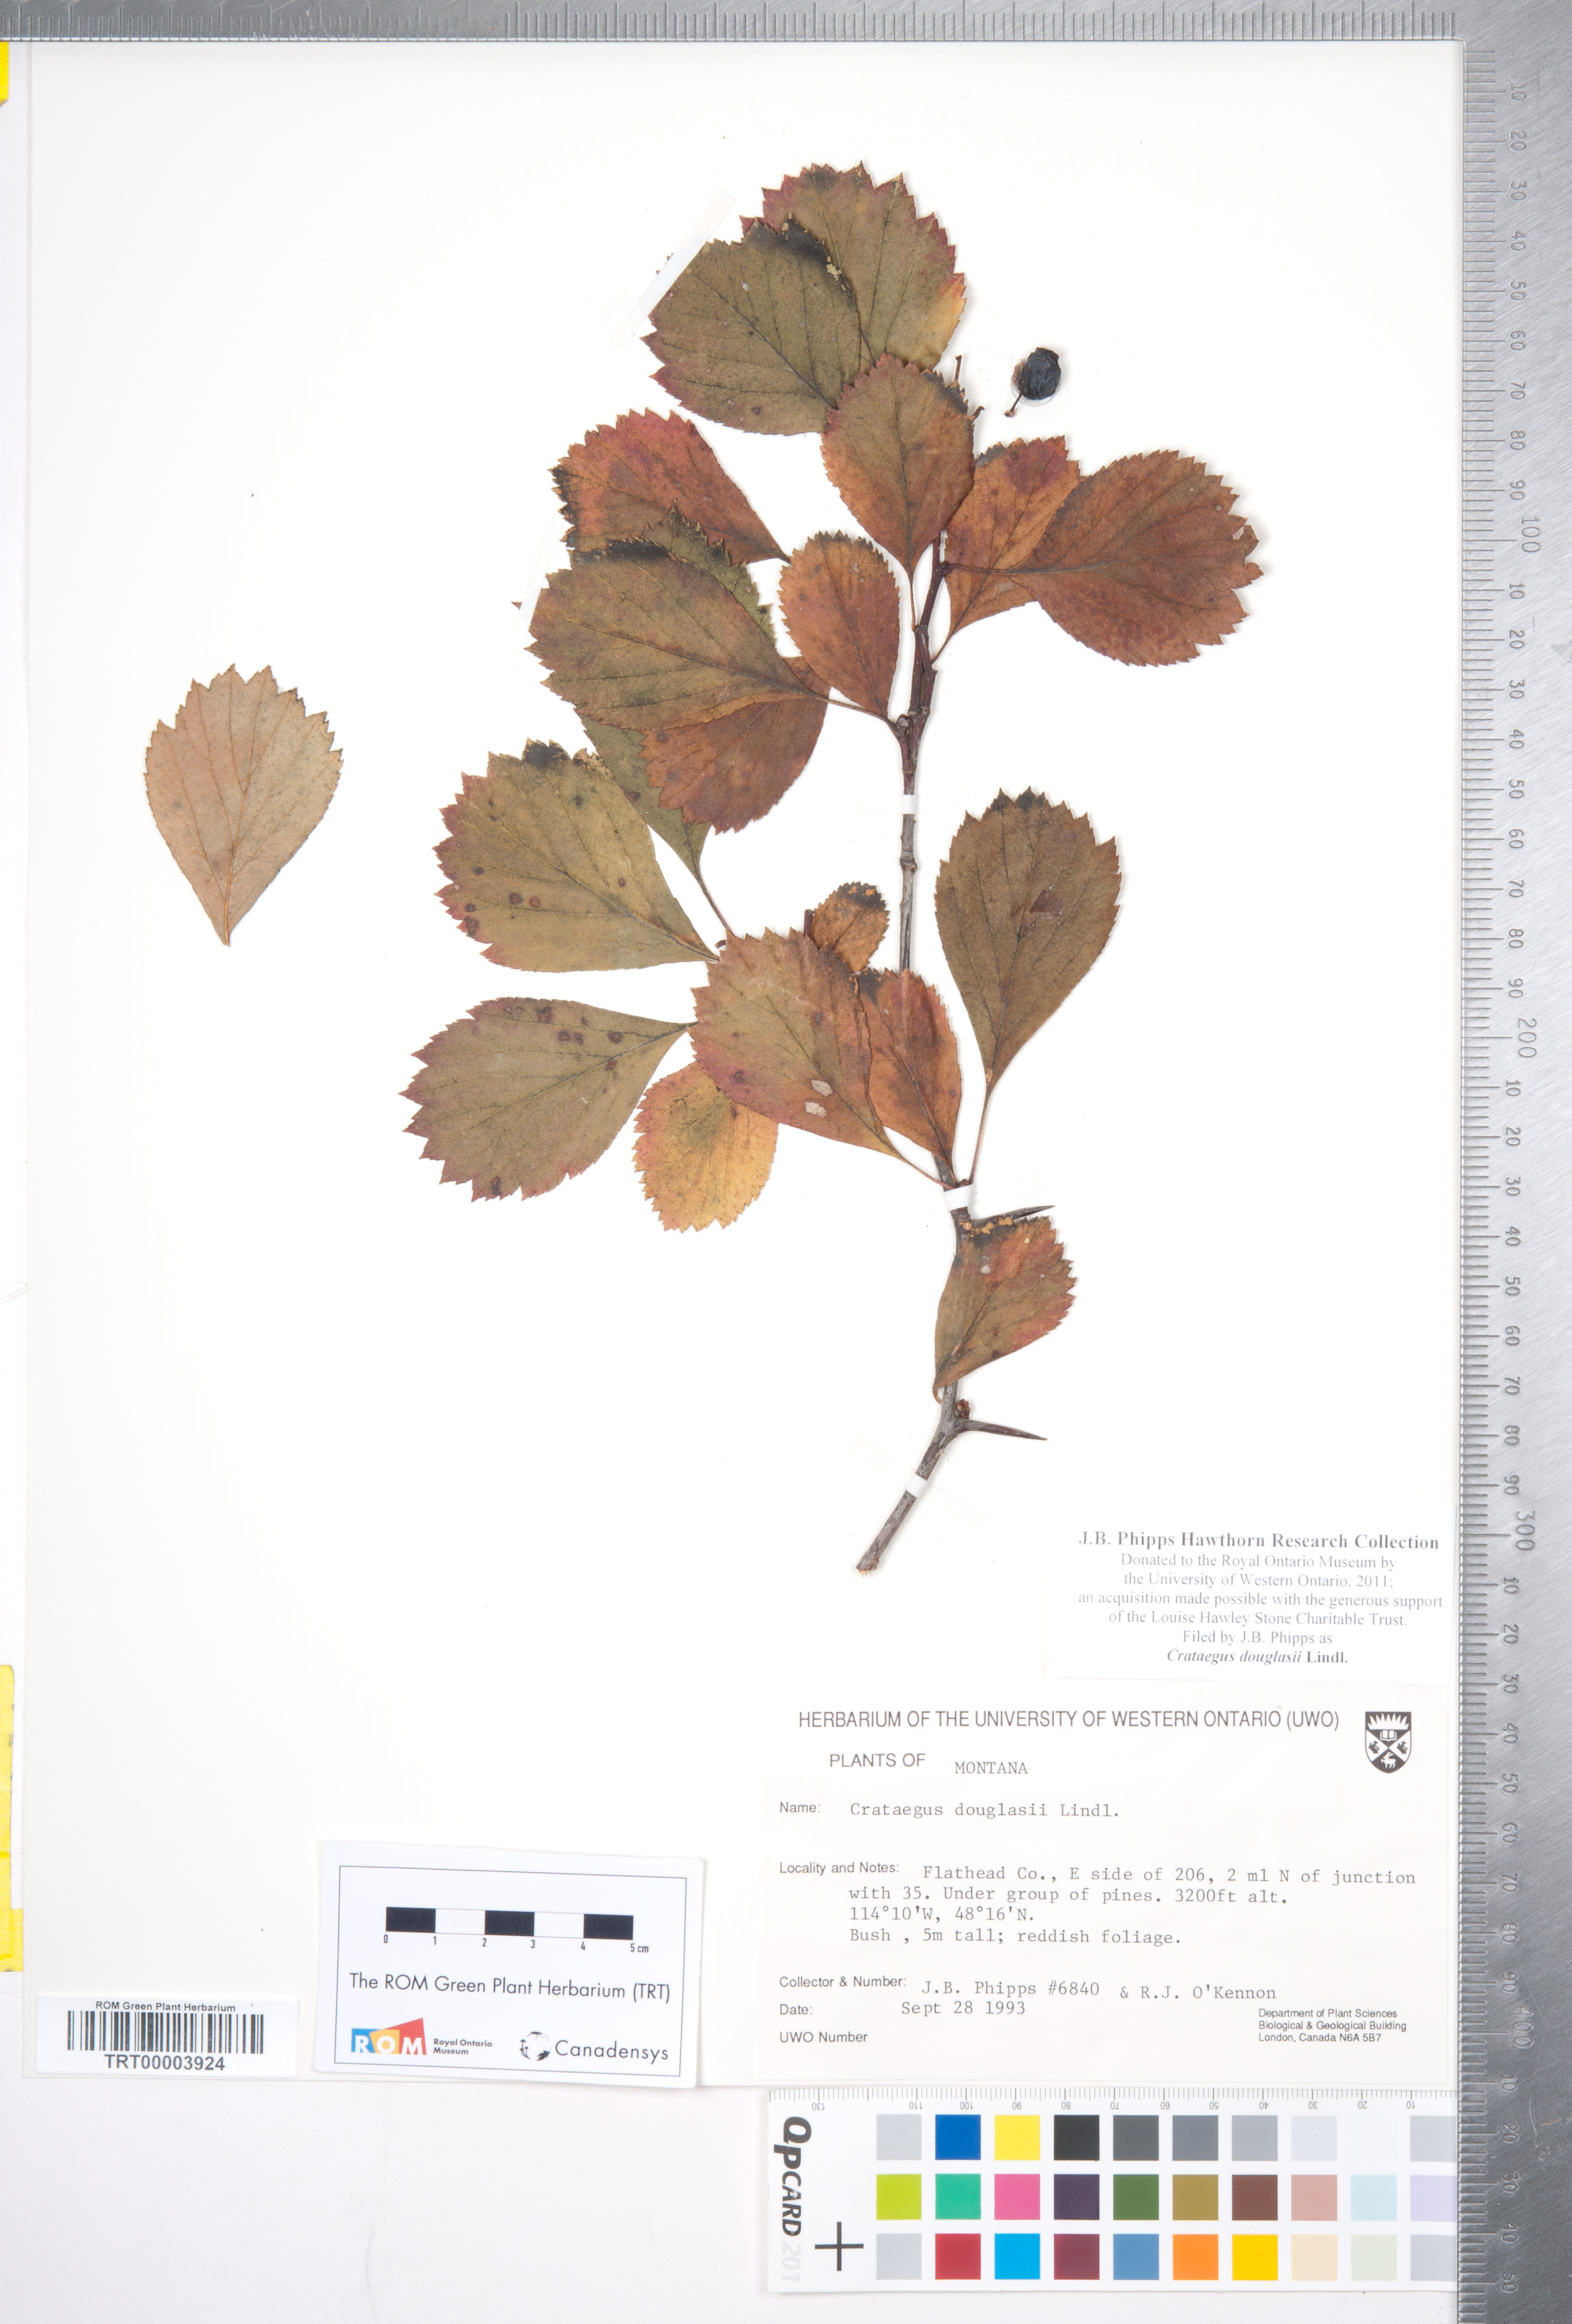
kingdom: Plantae
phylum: Tracheophyta
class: Magnoliopsida
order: Rosales
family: Rosaceae
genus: Crataegus
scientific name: Crataegus douglasii
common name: Black hawthorn
